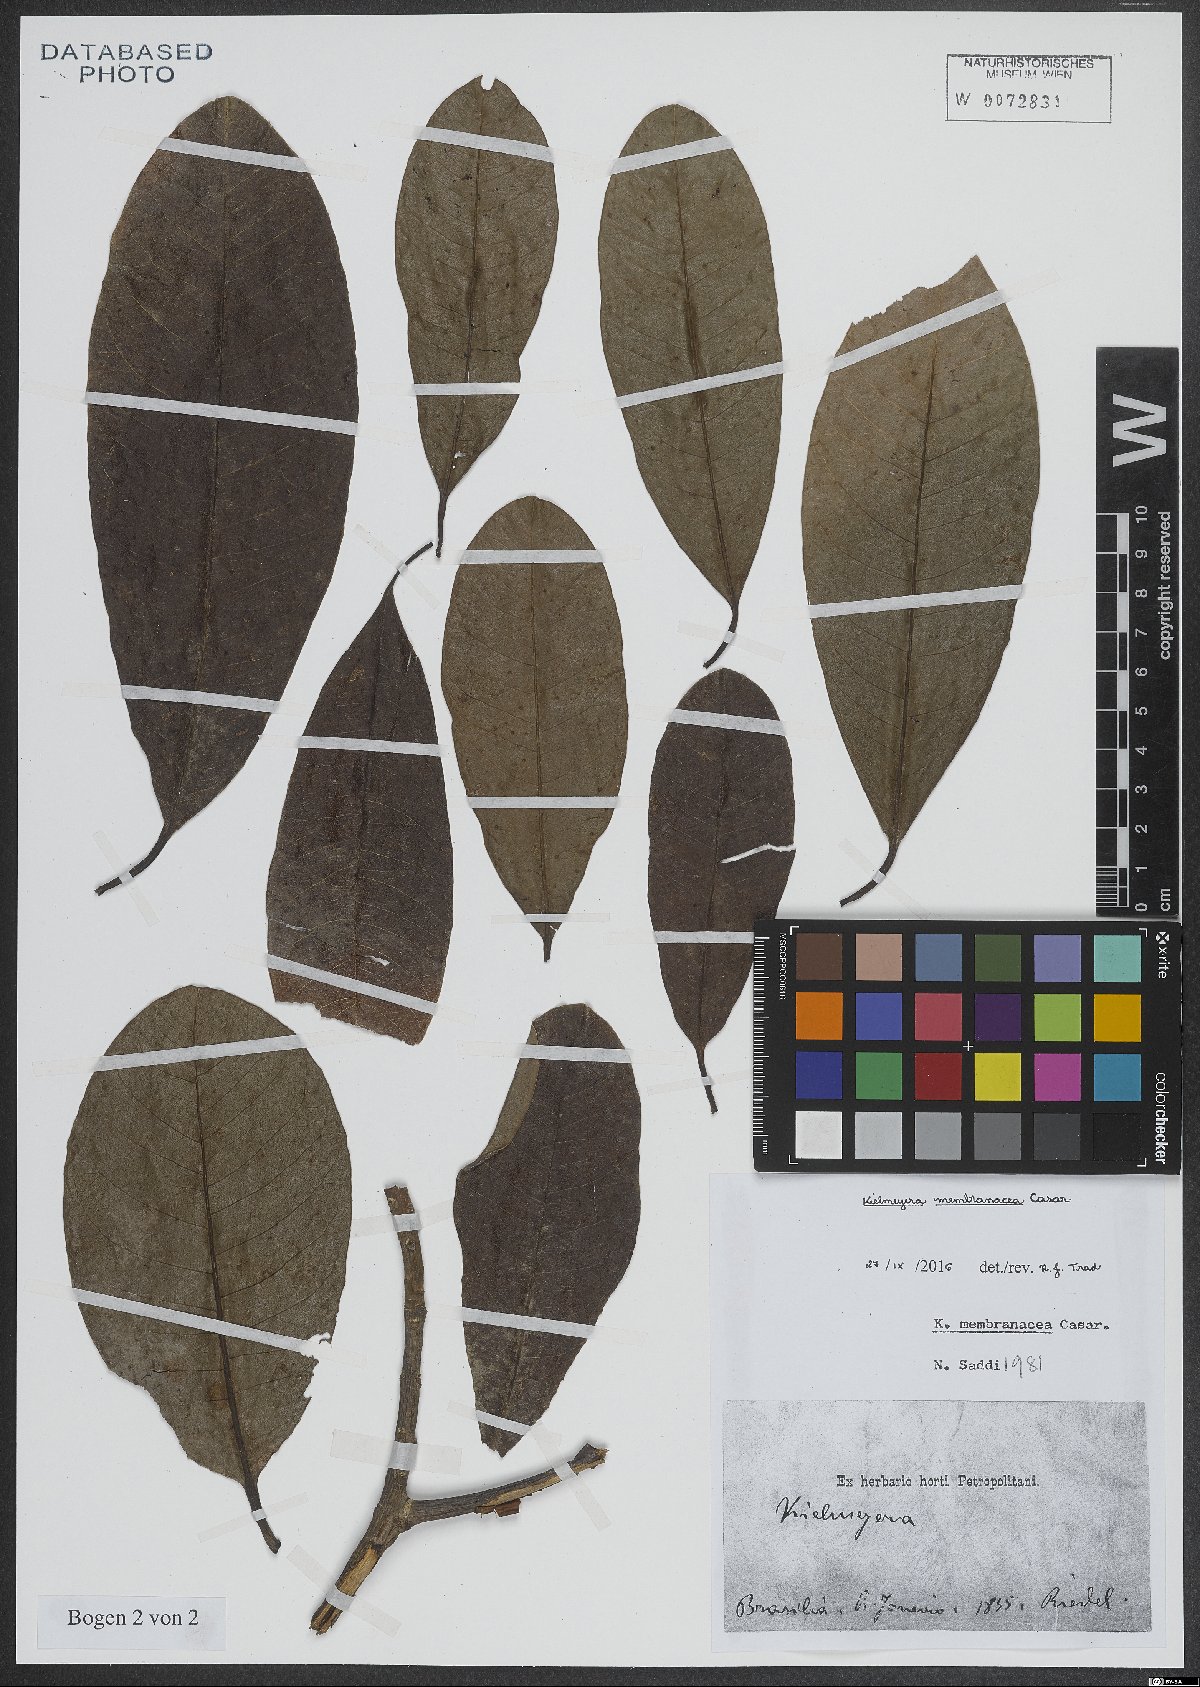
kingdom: Plantae
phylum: Tracheophyta
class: Magnoliopsida
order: Malpighiales
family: Calophyllaceae
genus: Kielmeyera
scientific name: Kielmeyera membranacea
